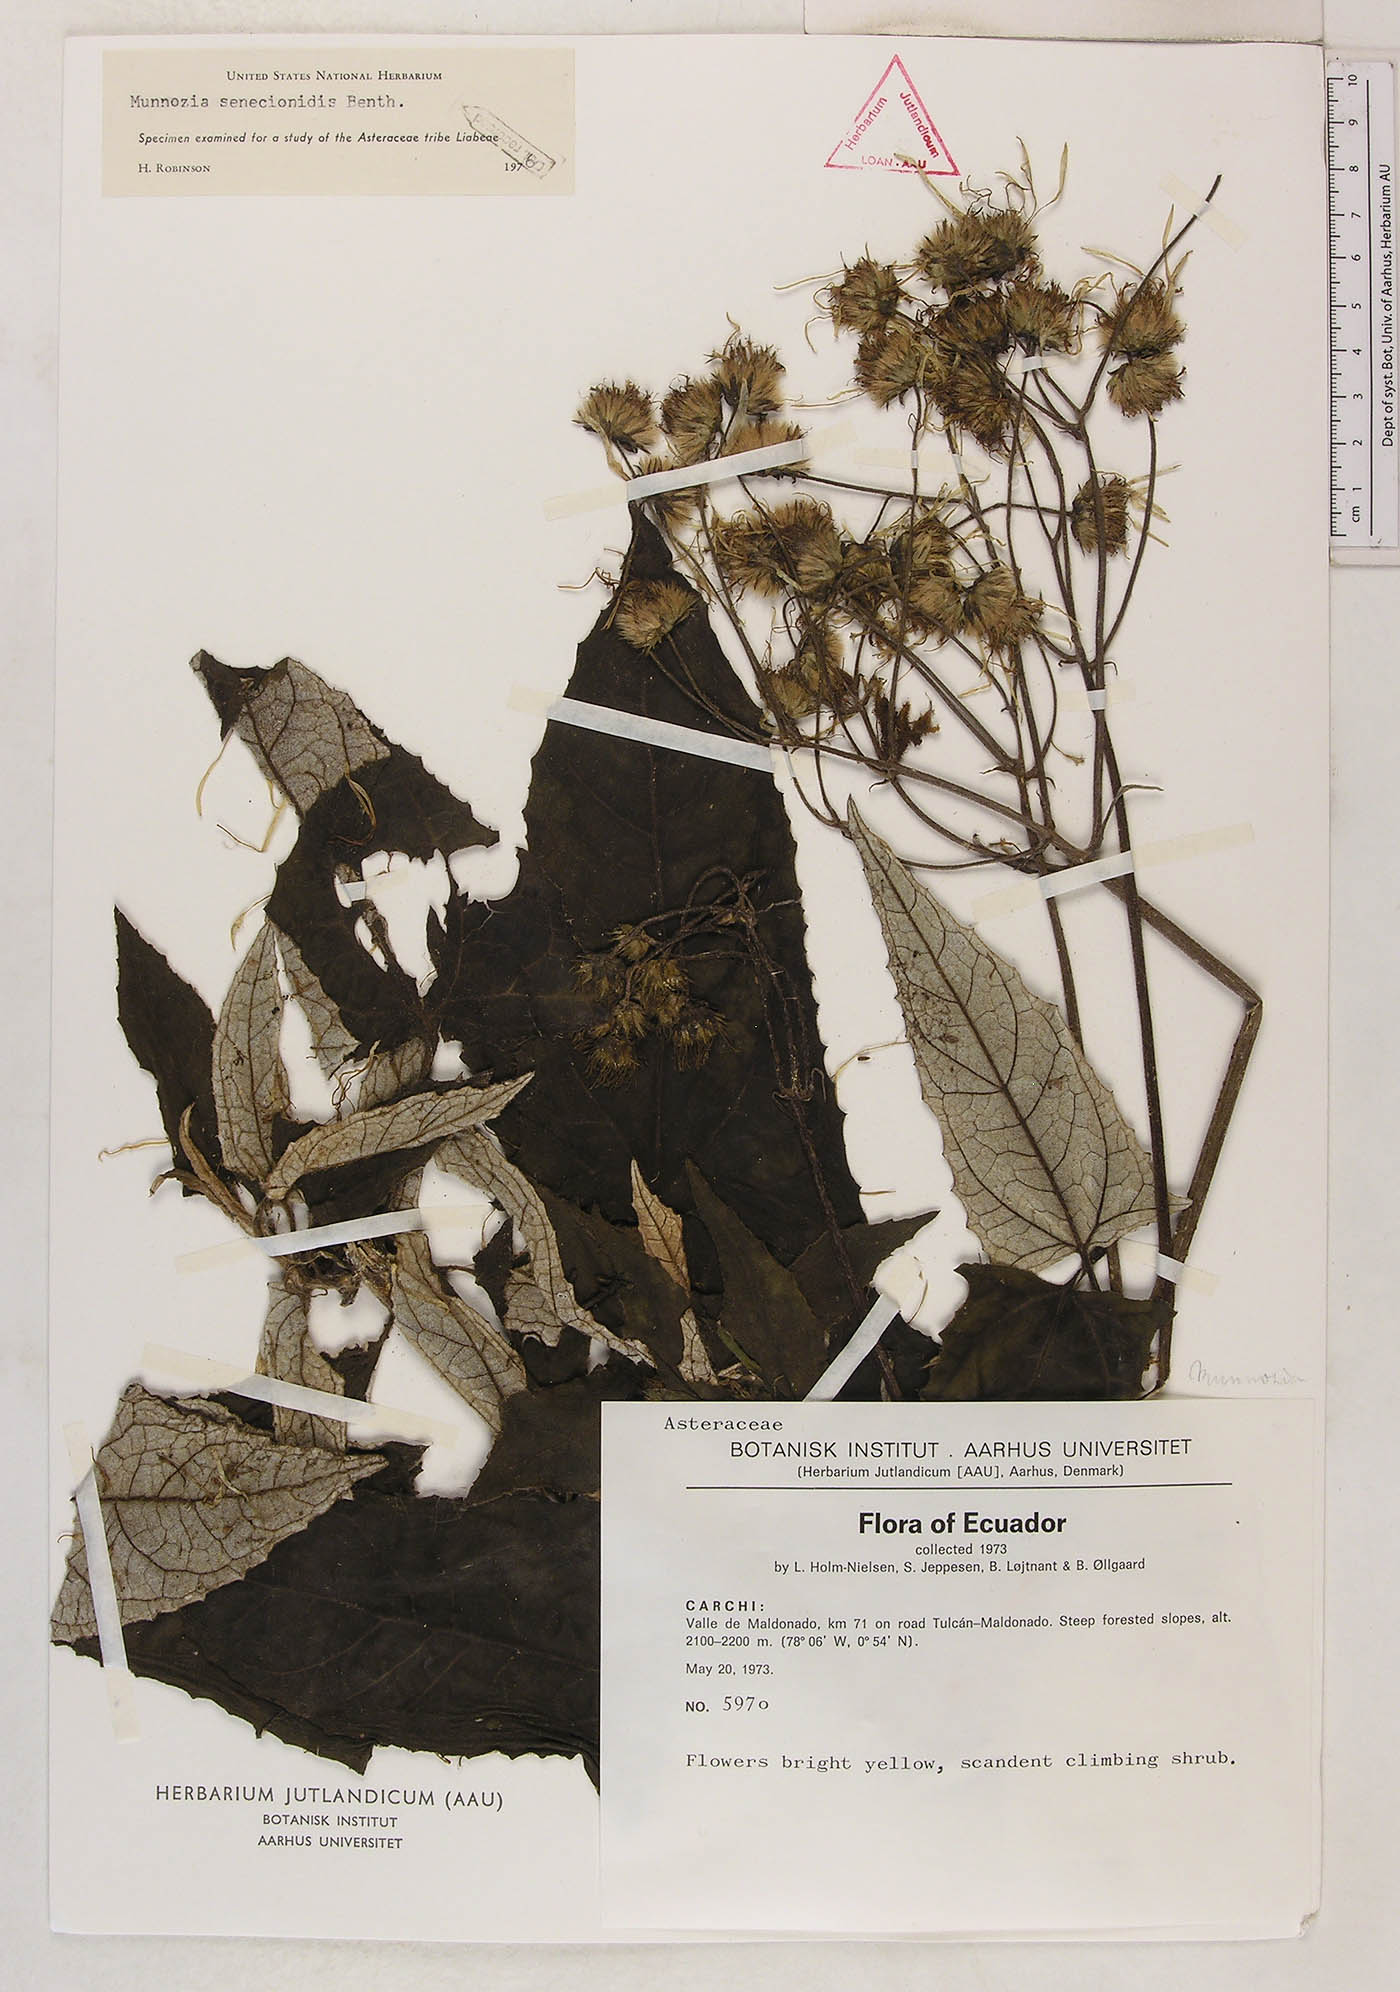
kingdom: Plantae
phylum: Tracheophyta
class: Magnoliopsida
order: Asterales
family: Asteraceae
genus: Munnozia
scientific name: Munnozia senecionidis
